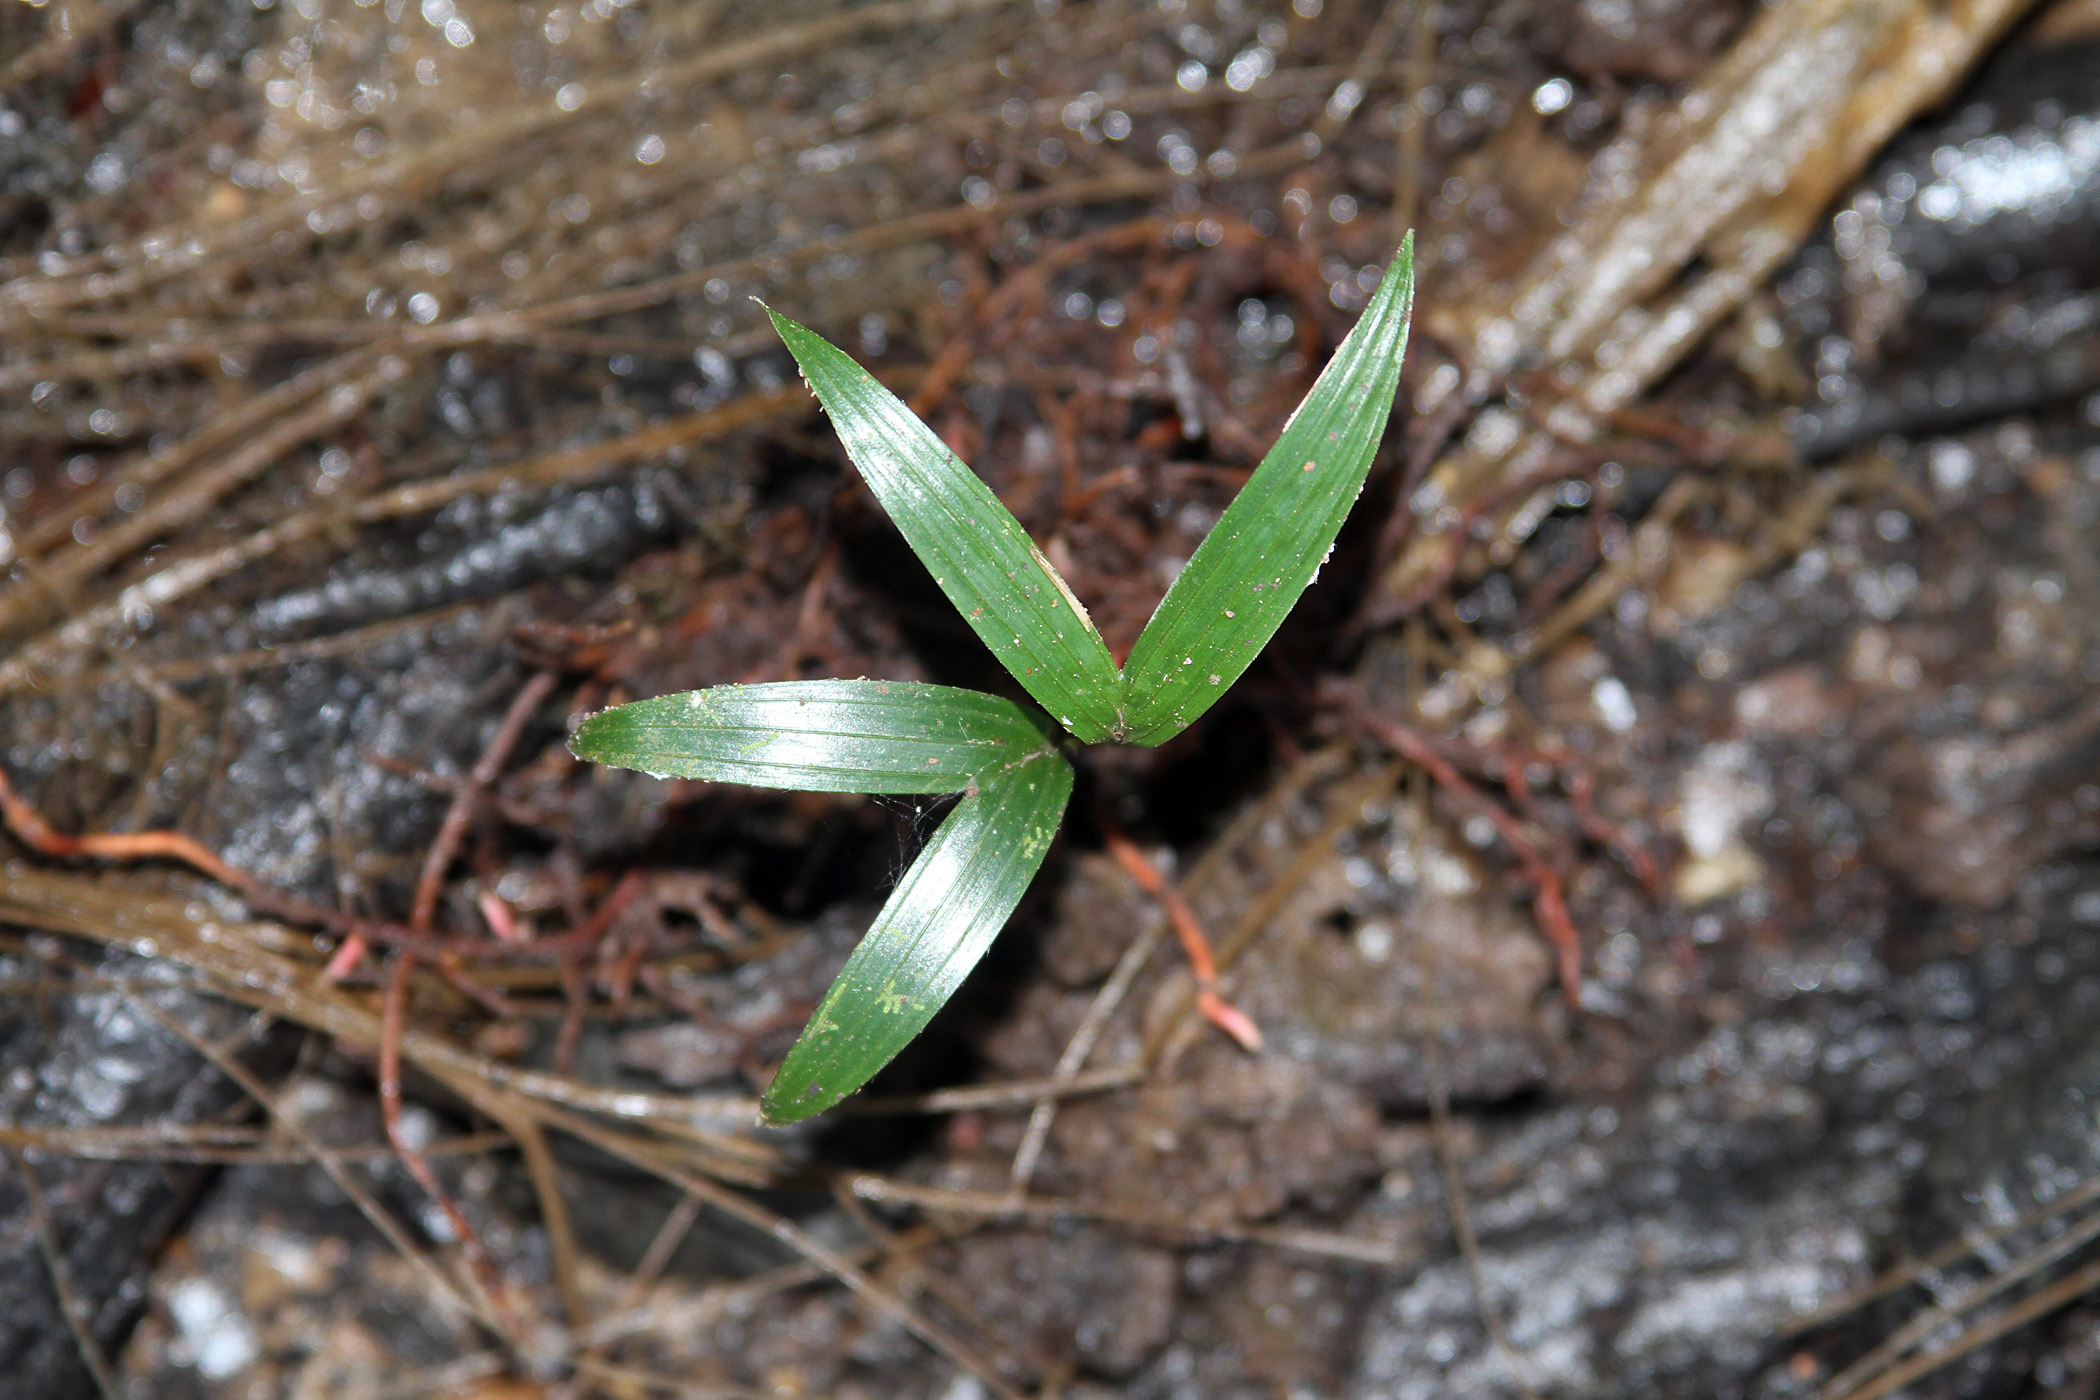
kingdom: Plantae
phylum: Tracheophyta
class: Liliopsida
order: Arecales
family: Arecaceae
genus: Bactris
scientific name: Bactris barronis
